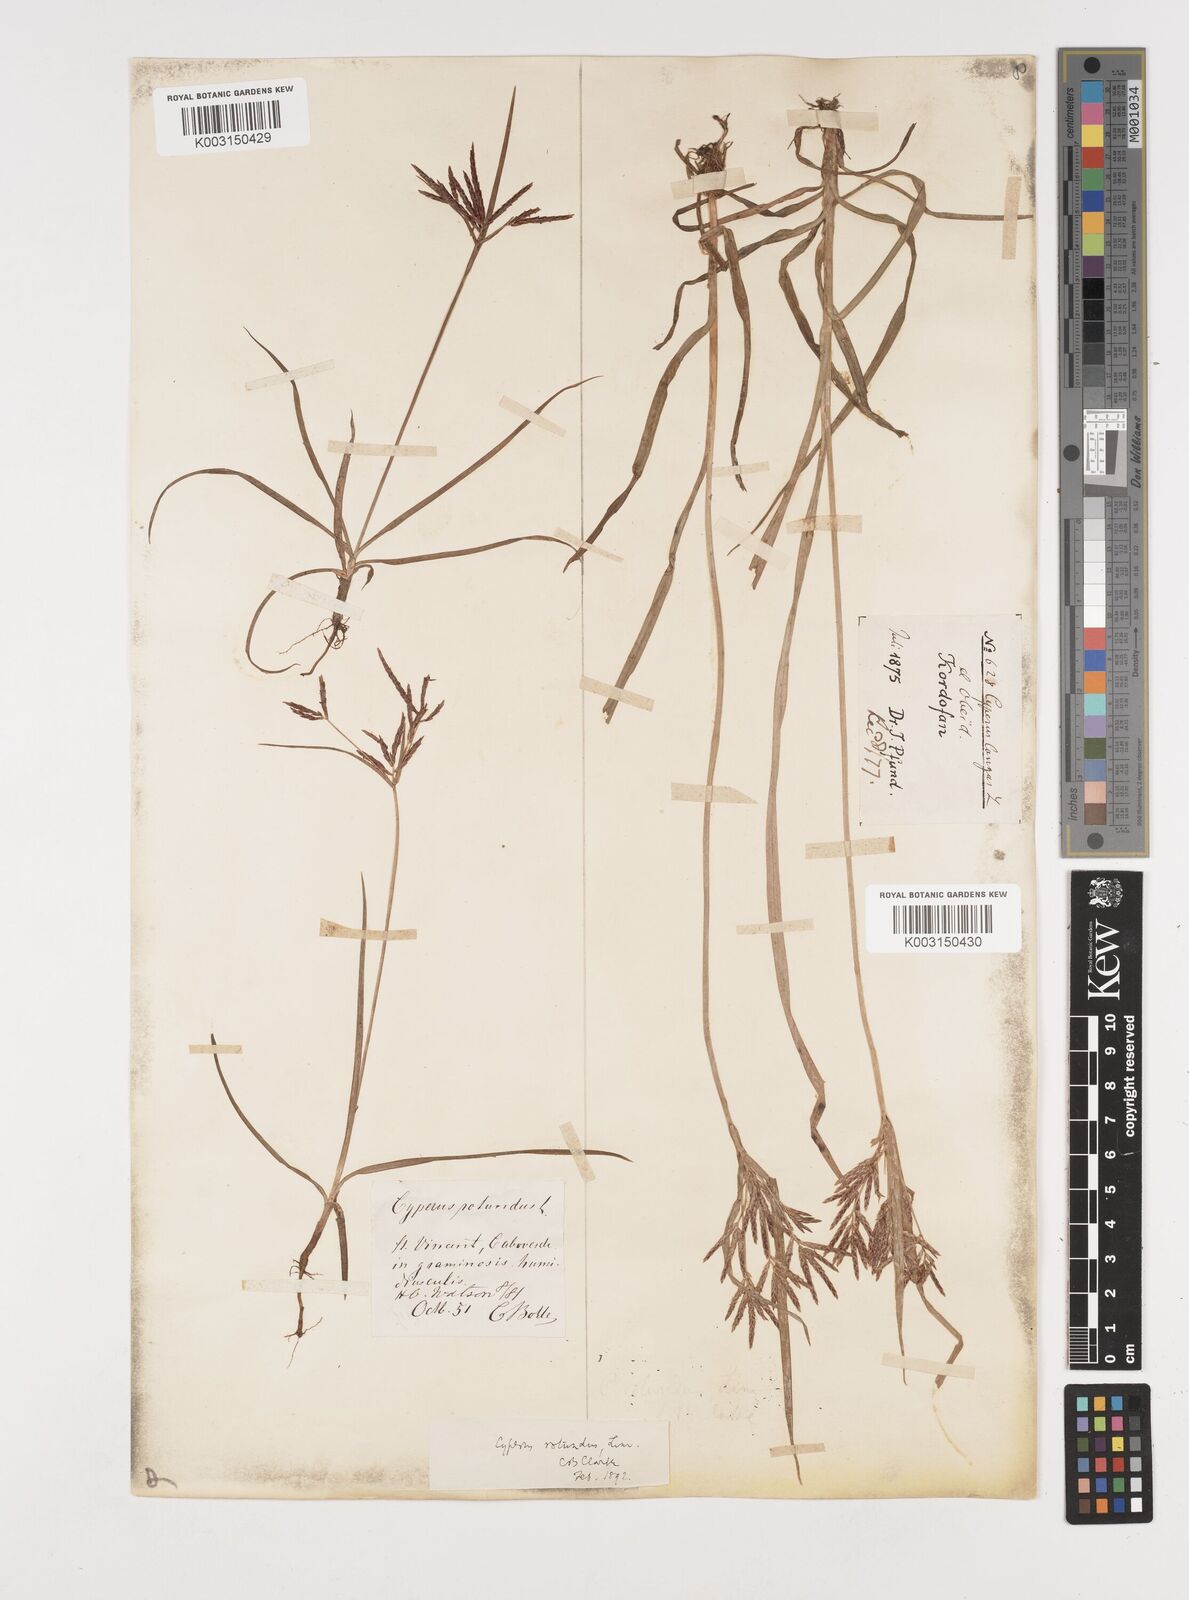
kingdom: Plantae
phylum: Tracheophyta
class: Liliopsida
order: Poales
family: Cyperaceae
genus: Cyperus
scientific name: Cyperus rotundus
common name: Nutgrass
